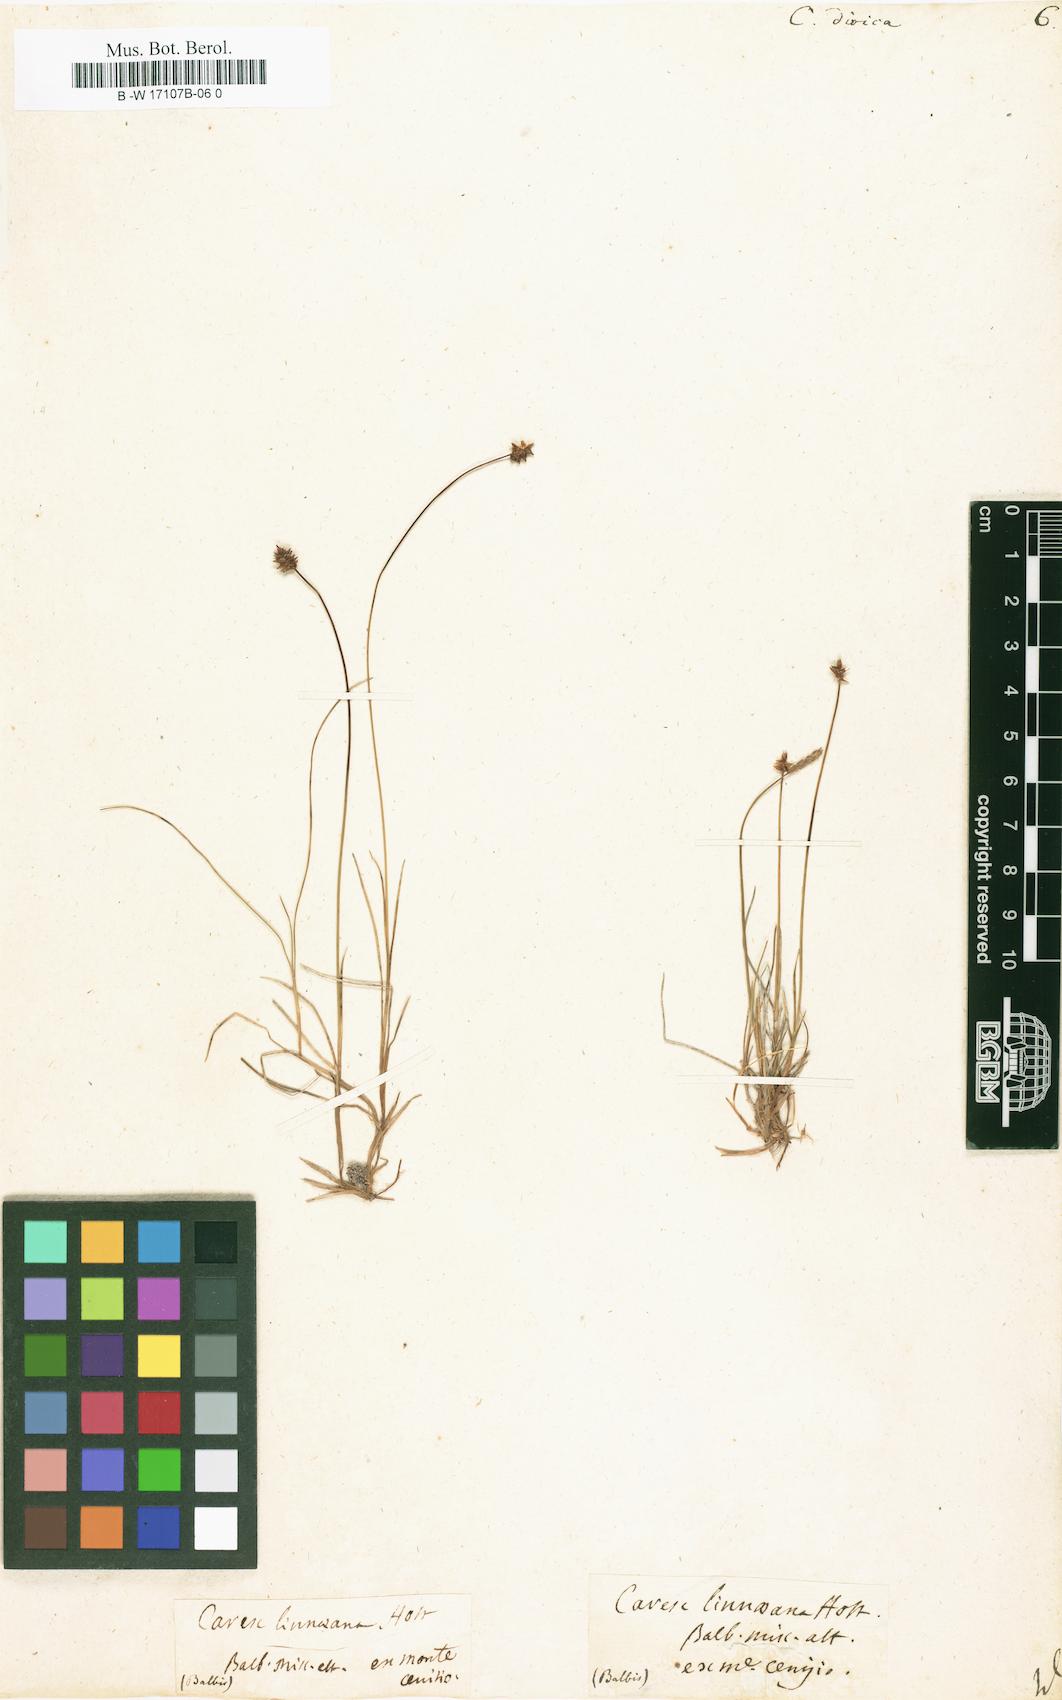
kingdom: Plantae
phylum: Tracheophyta
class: Liliopsida
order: Poales
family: Cyperaceae
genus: Carex
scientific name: Carex dioica
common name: Dioecious sedge
